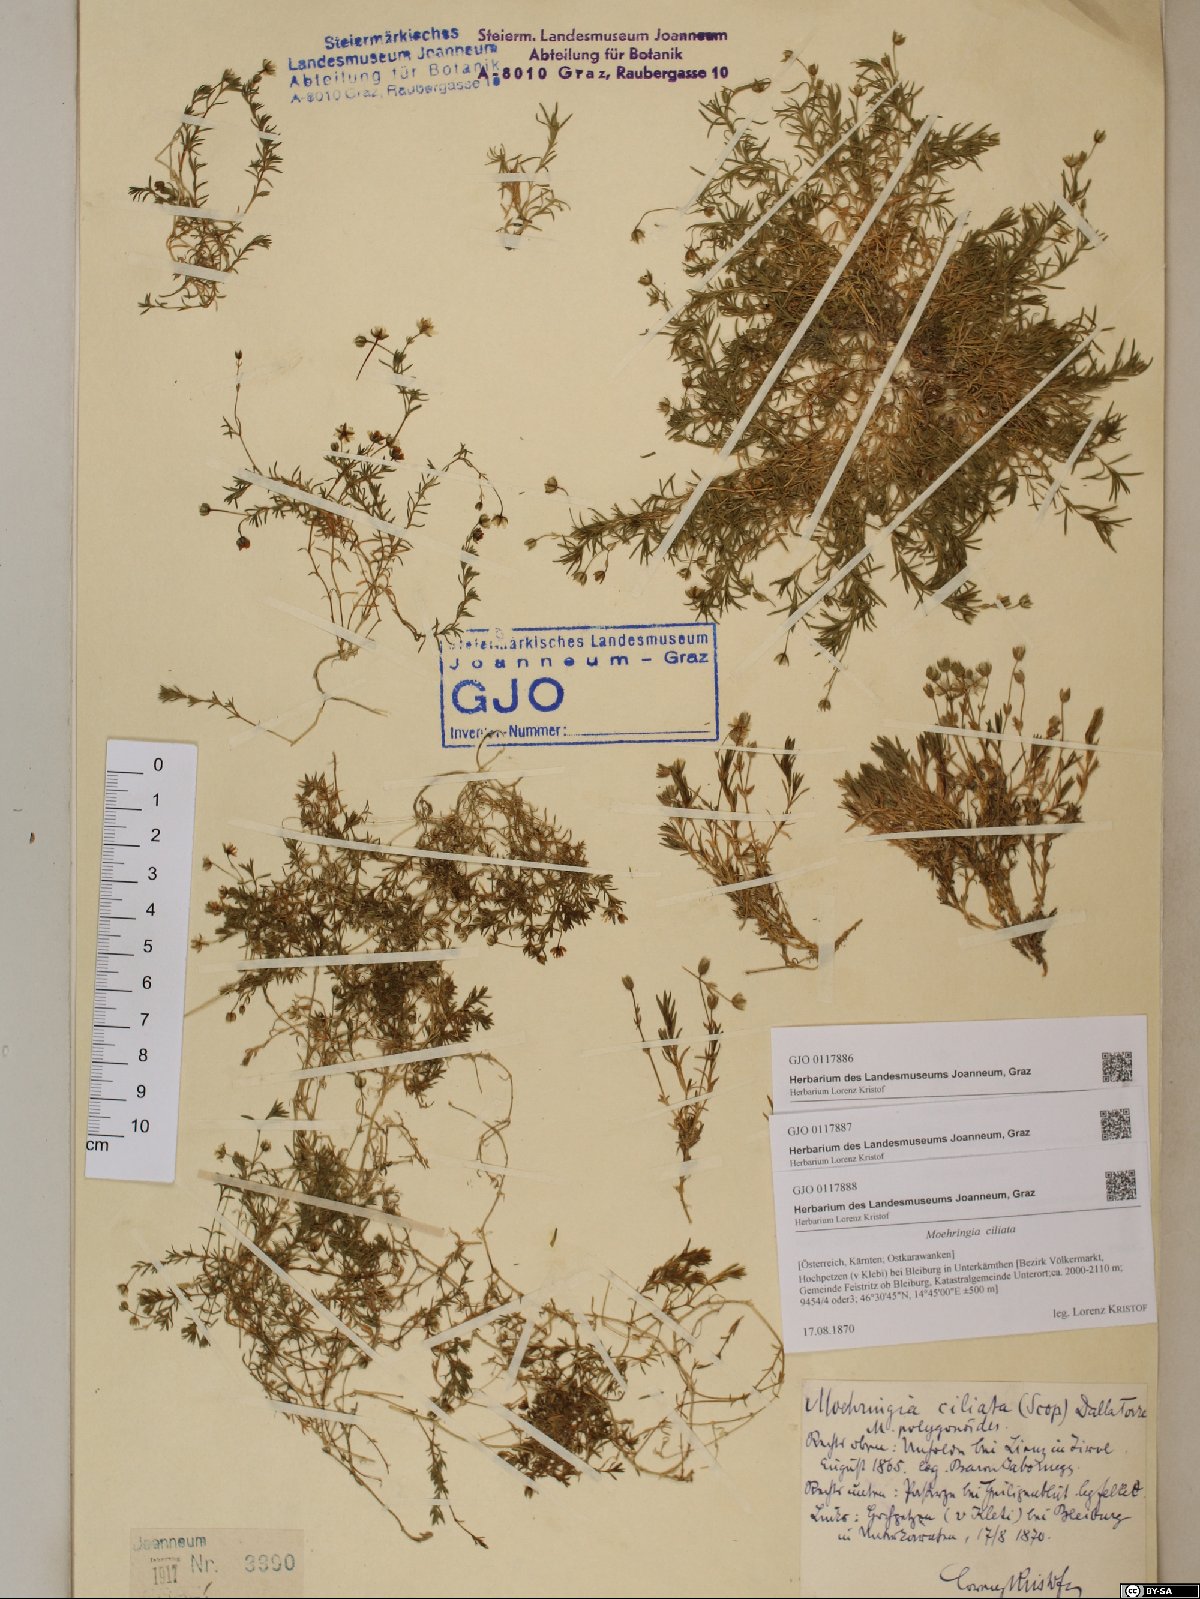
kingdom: Plantae
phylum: Tracheophyta
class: Magnoliopsida
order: Caryophyllales
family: Caryophyllaceae
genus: Moehringia
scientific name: Moehringia ciliata
